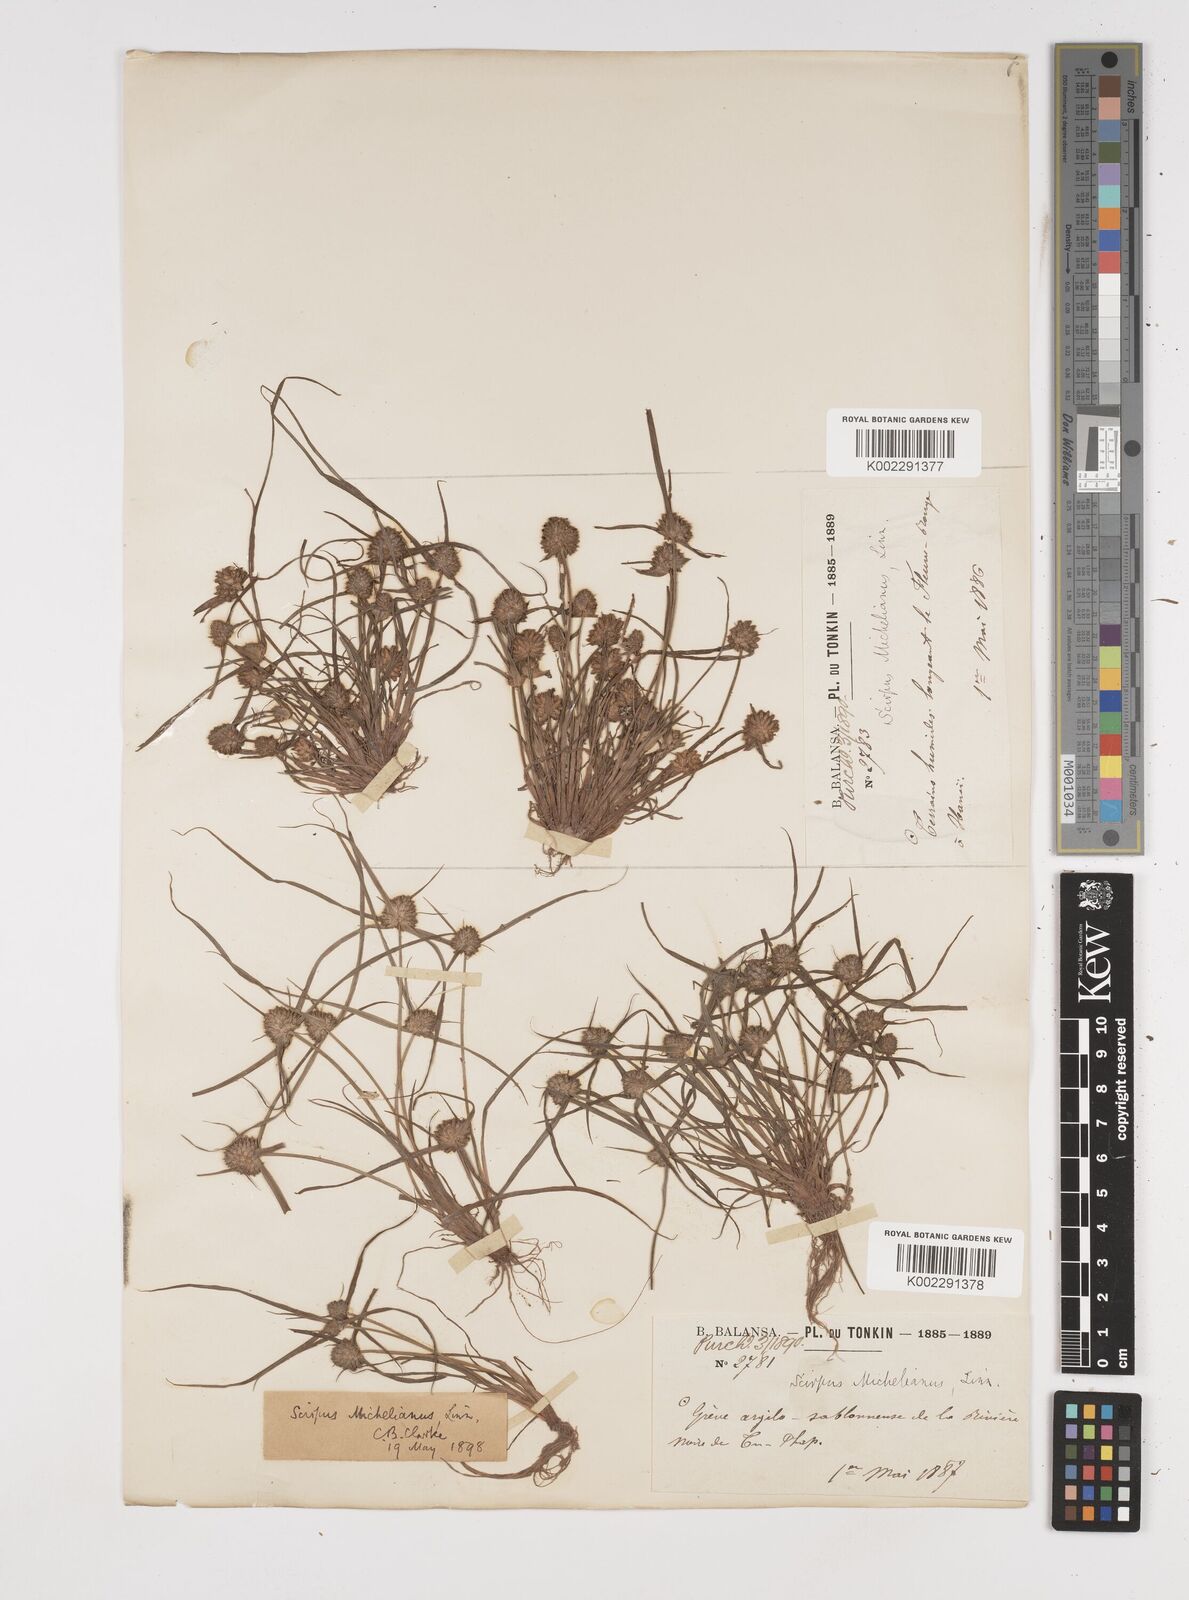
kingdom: Plantae
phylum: Tracheophyta
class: Liliopsida
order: Poales
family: Cyperaceae
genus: Cyperus
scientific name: Cyperus michelianus
